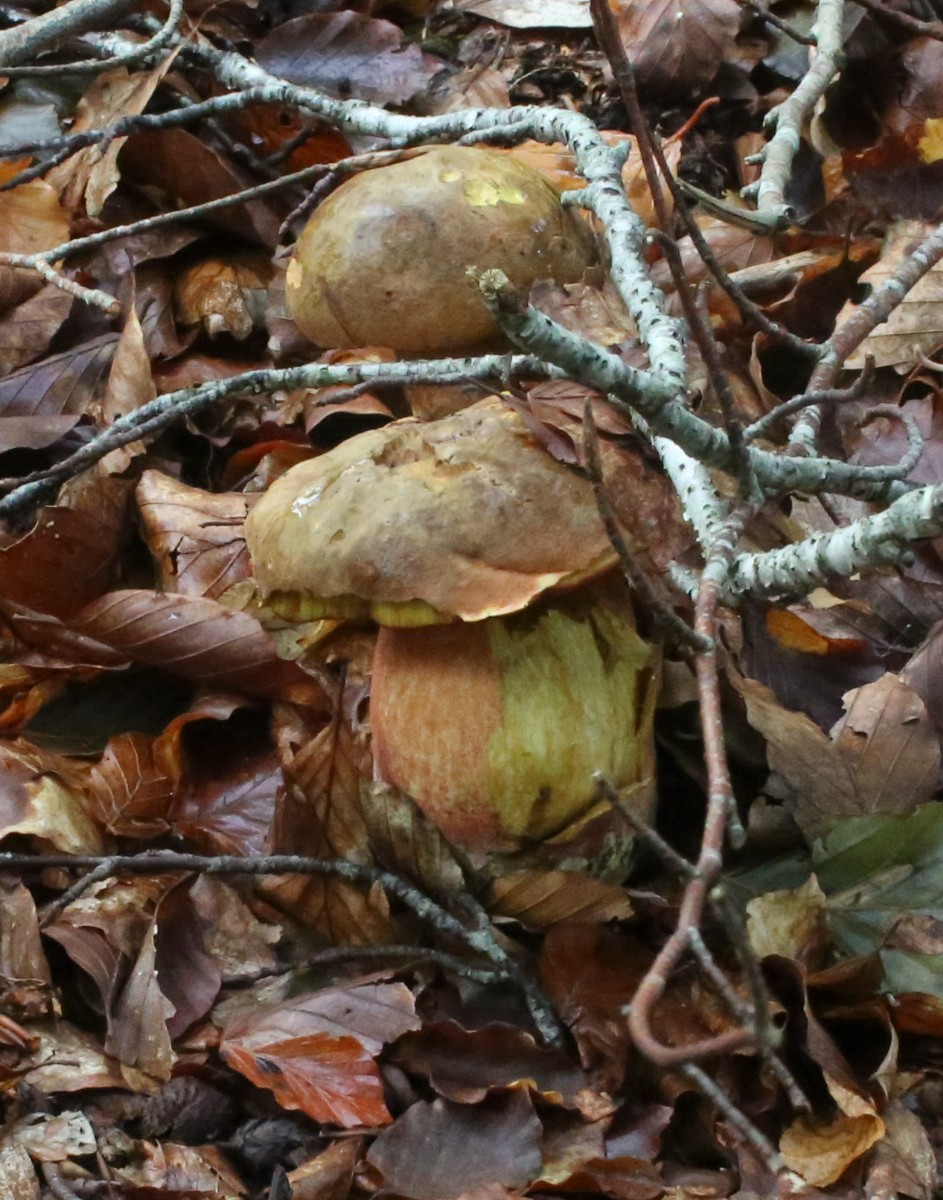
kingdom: Fungi
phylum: Basidiomycota
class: Agaricomycetes
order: Boletales
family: Boletaceae
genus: Neoboletus
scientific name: Neoboletus erythropus
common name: punktstokket indigorørhat
